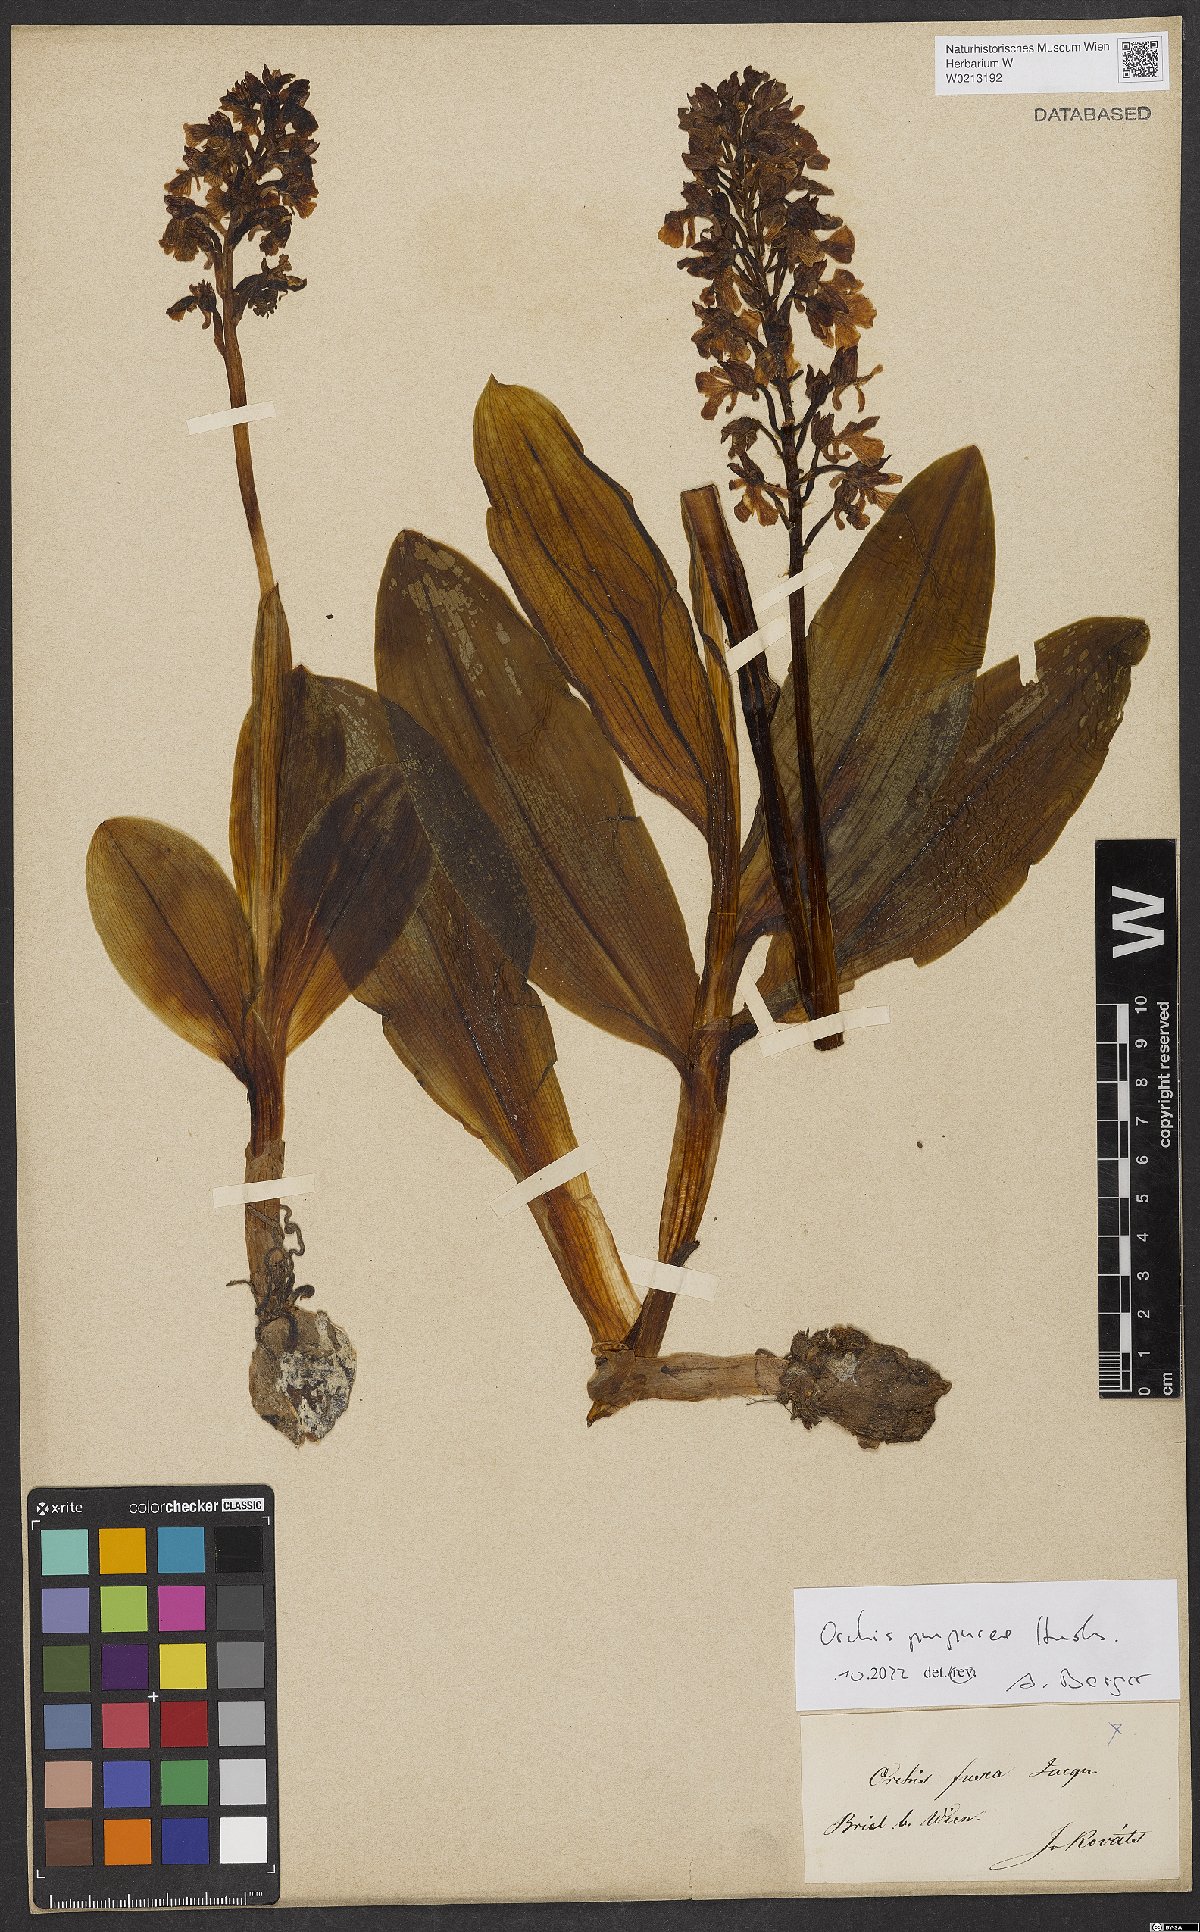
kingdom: Plantae
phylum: Tracheophyta
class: Liliopsida
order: Asparagales
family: Orchidaceae
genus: Orchis
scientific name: Orchis purpurea
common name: Lady orchid
